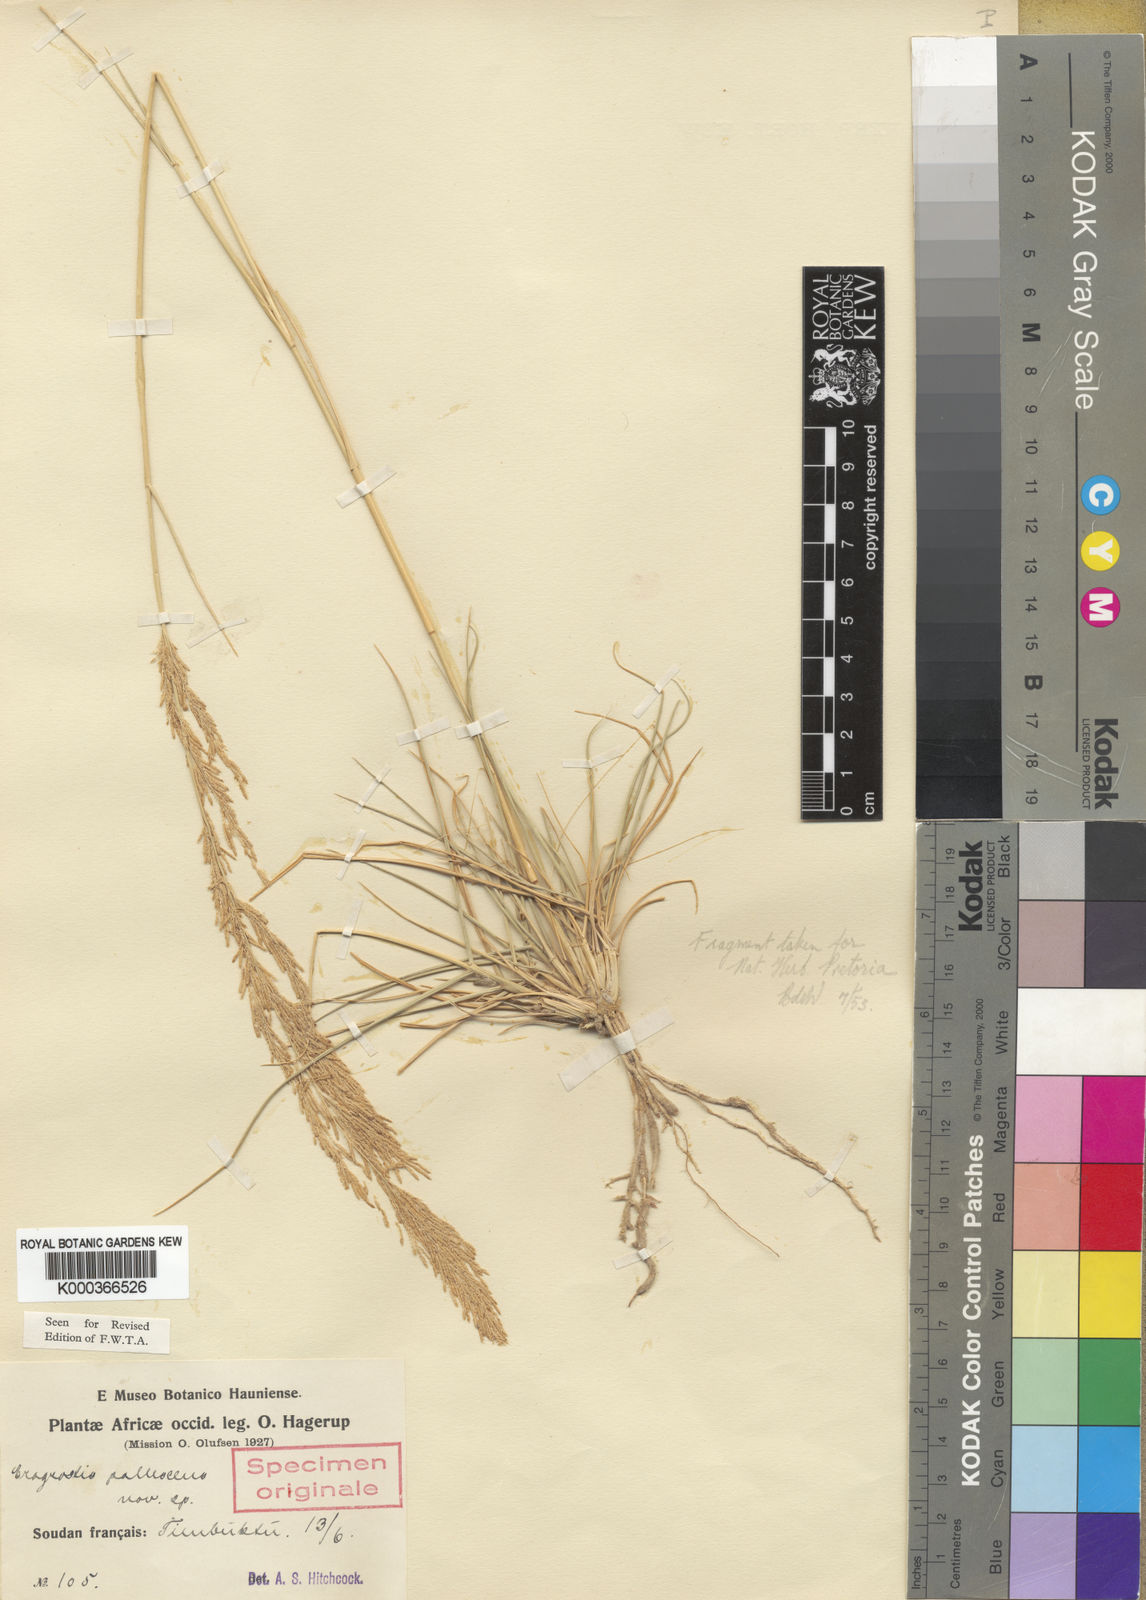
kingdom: Plantae
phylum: Tracheophyta
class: Liliopsida
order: Poales
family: Poaceae
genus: Eragrostis
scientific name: Eragrostis prolifera
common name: Dominican lovegrass
